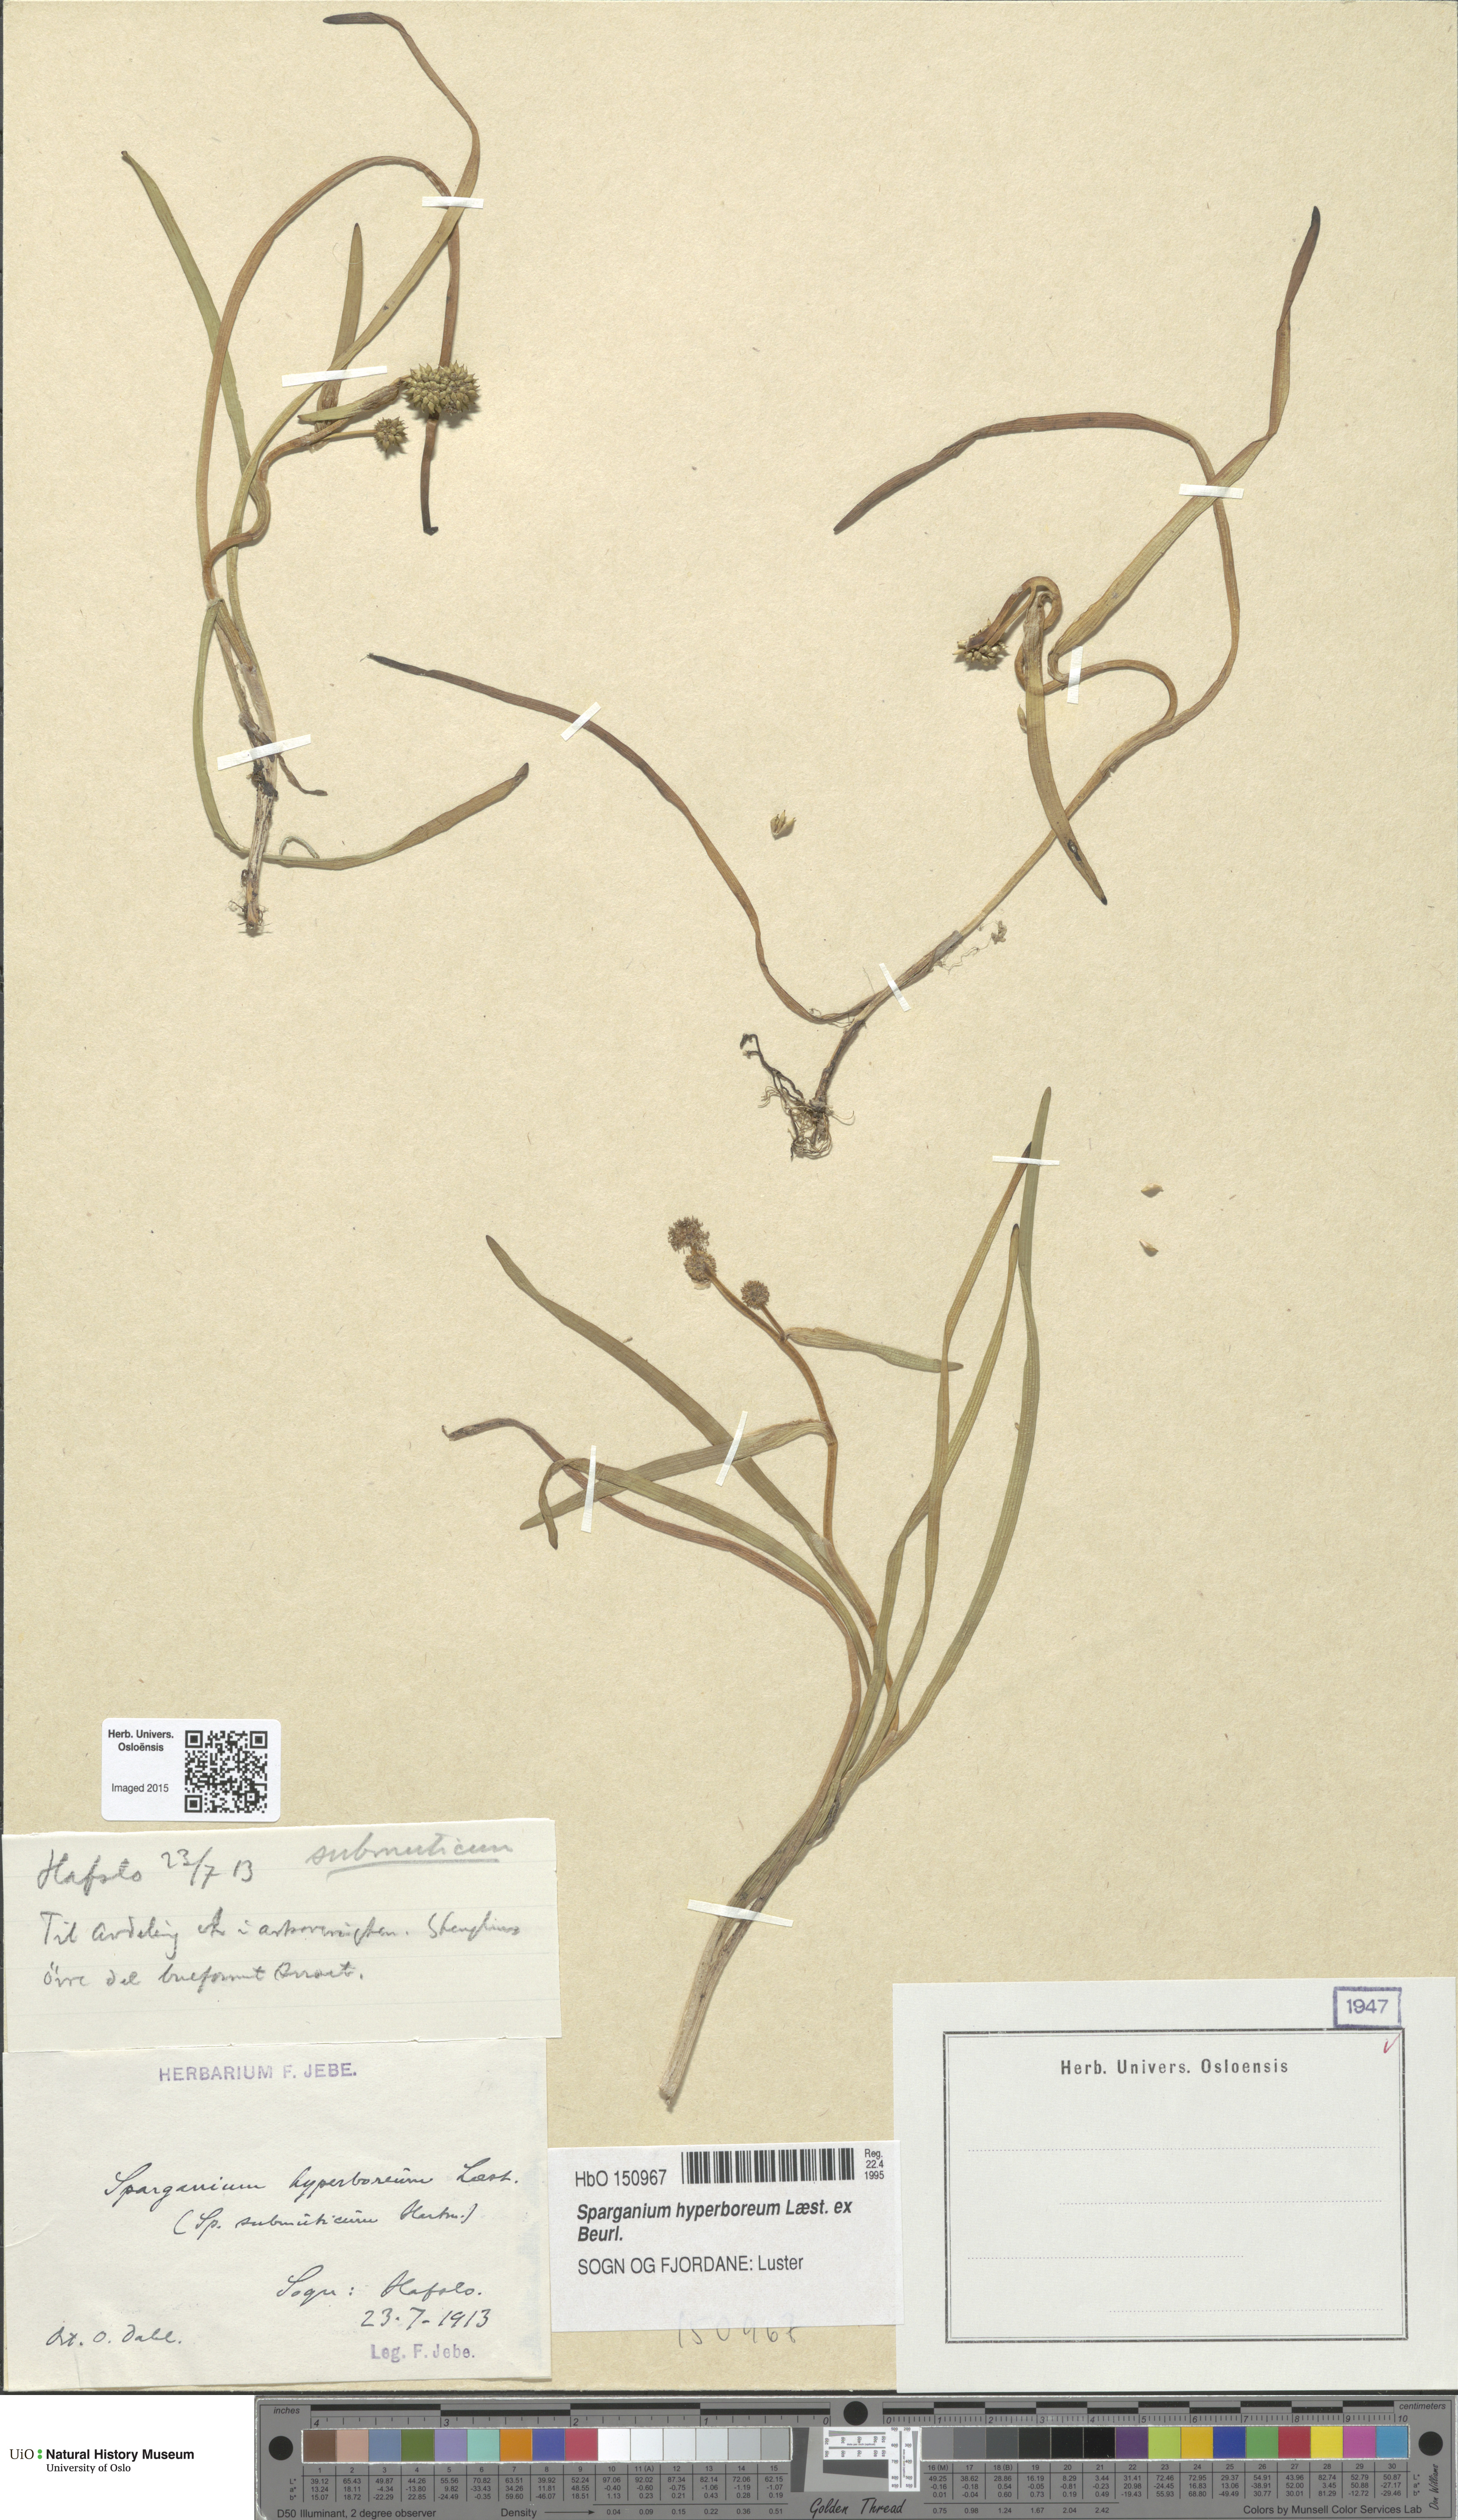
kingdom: Plantae
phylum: Tracheophyta
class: Liliopsida
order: Poales
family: Typhaceae
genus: Sparganium
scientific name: Sparganium hyperboreum
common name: Arctic burreed
